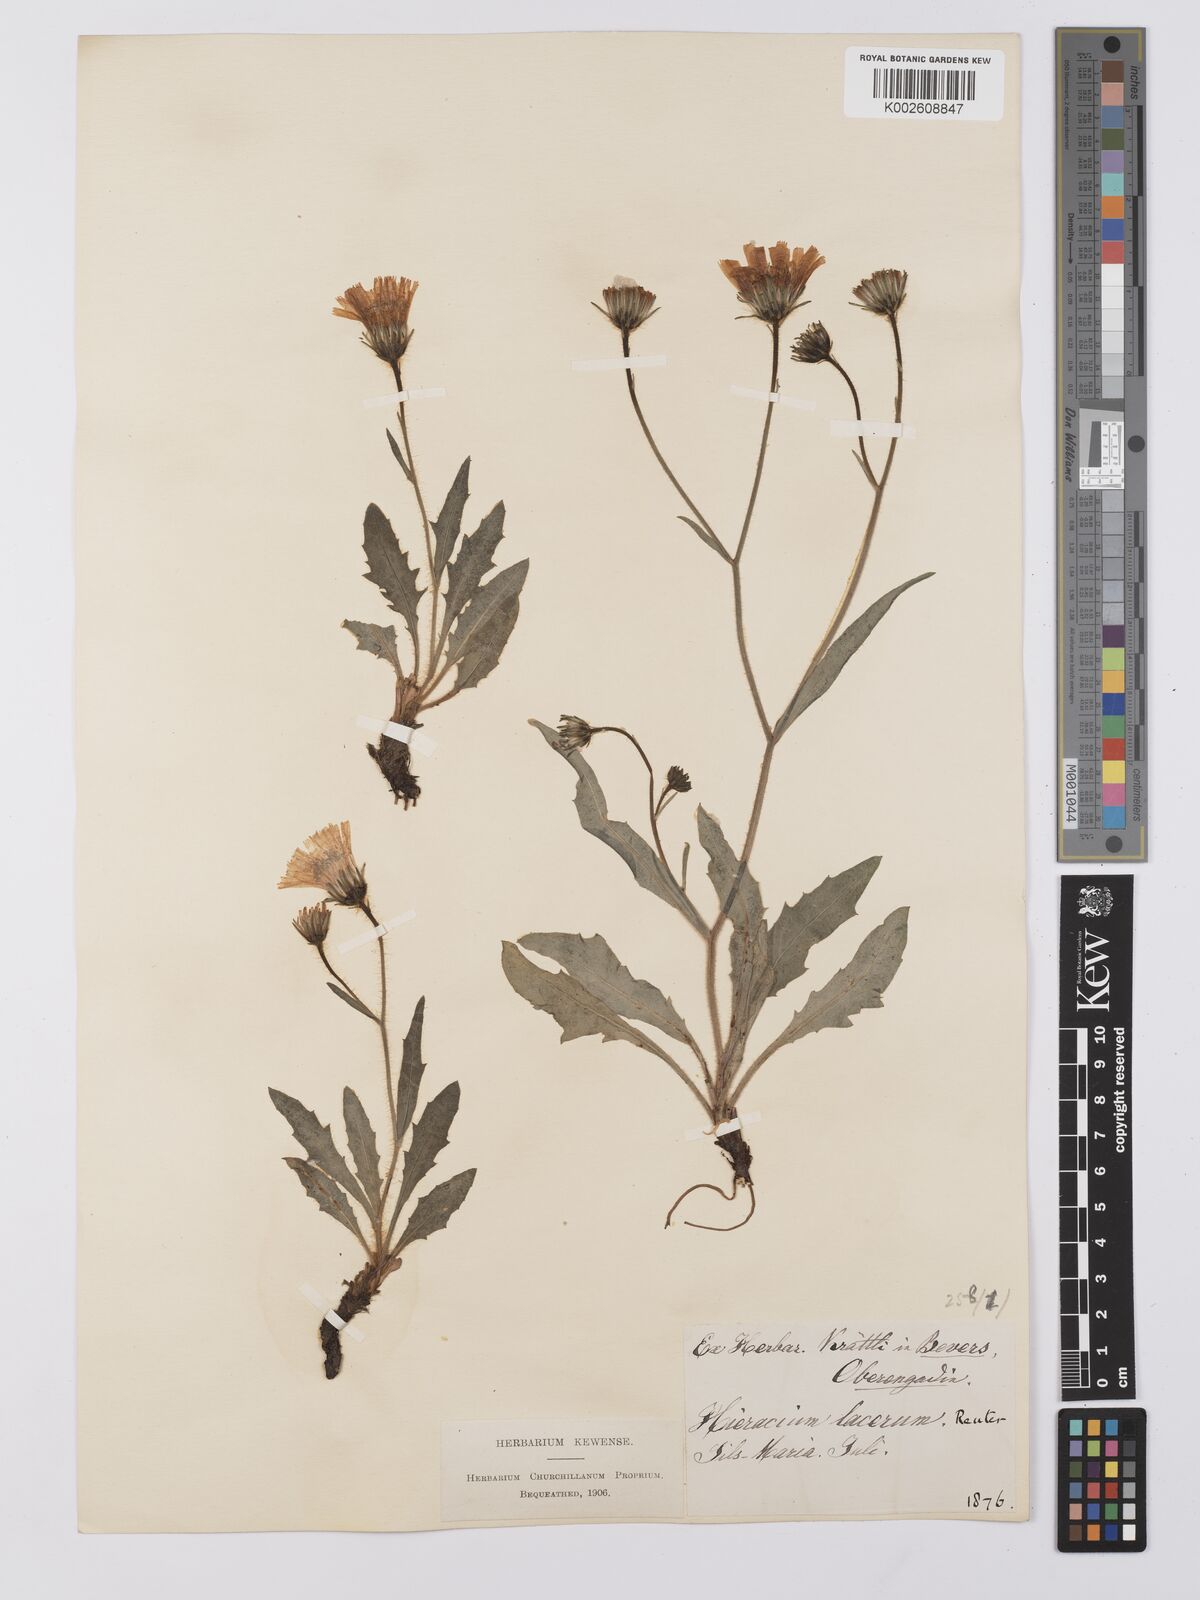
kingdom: Plantae
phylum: Tracheophyta
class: Magnoliopsida
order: Asterales
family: Asteraceae
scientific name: Asteraceae
